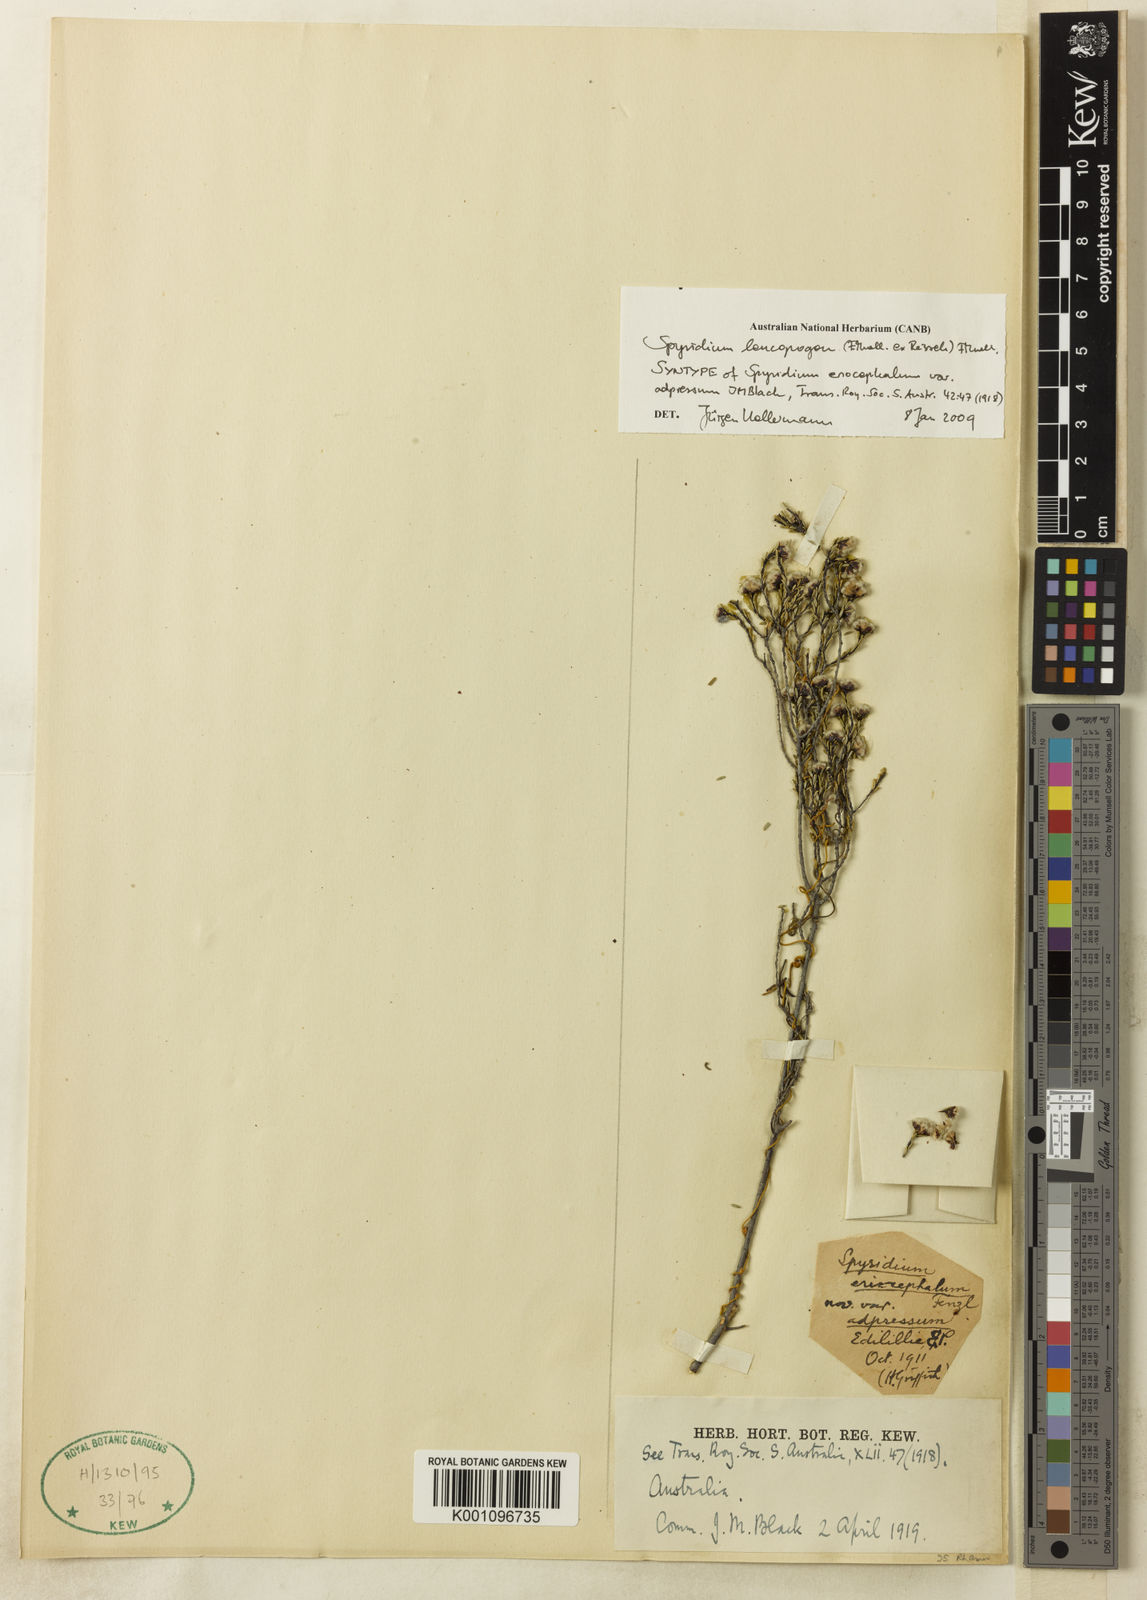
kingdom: Plantae
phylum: Tracheophyta
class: Magnoliopsida
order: Rosales
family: Rhamnaceae
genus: Spyridium
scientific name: Spyridium leucopogon
